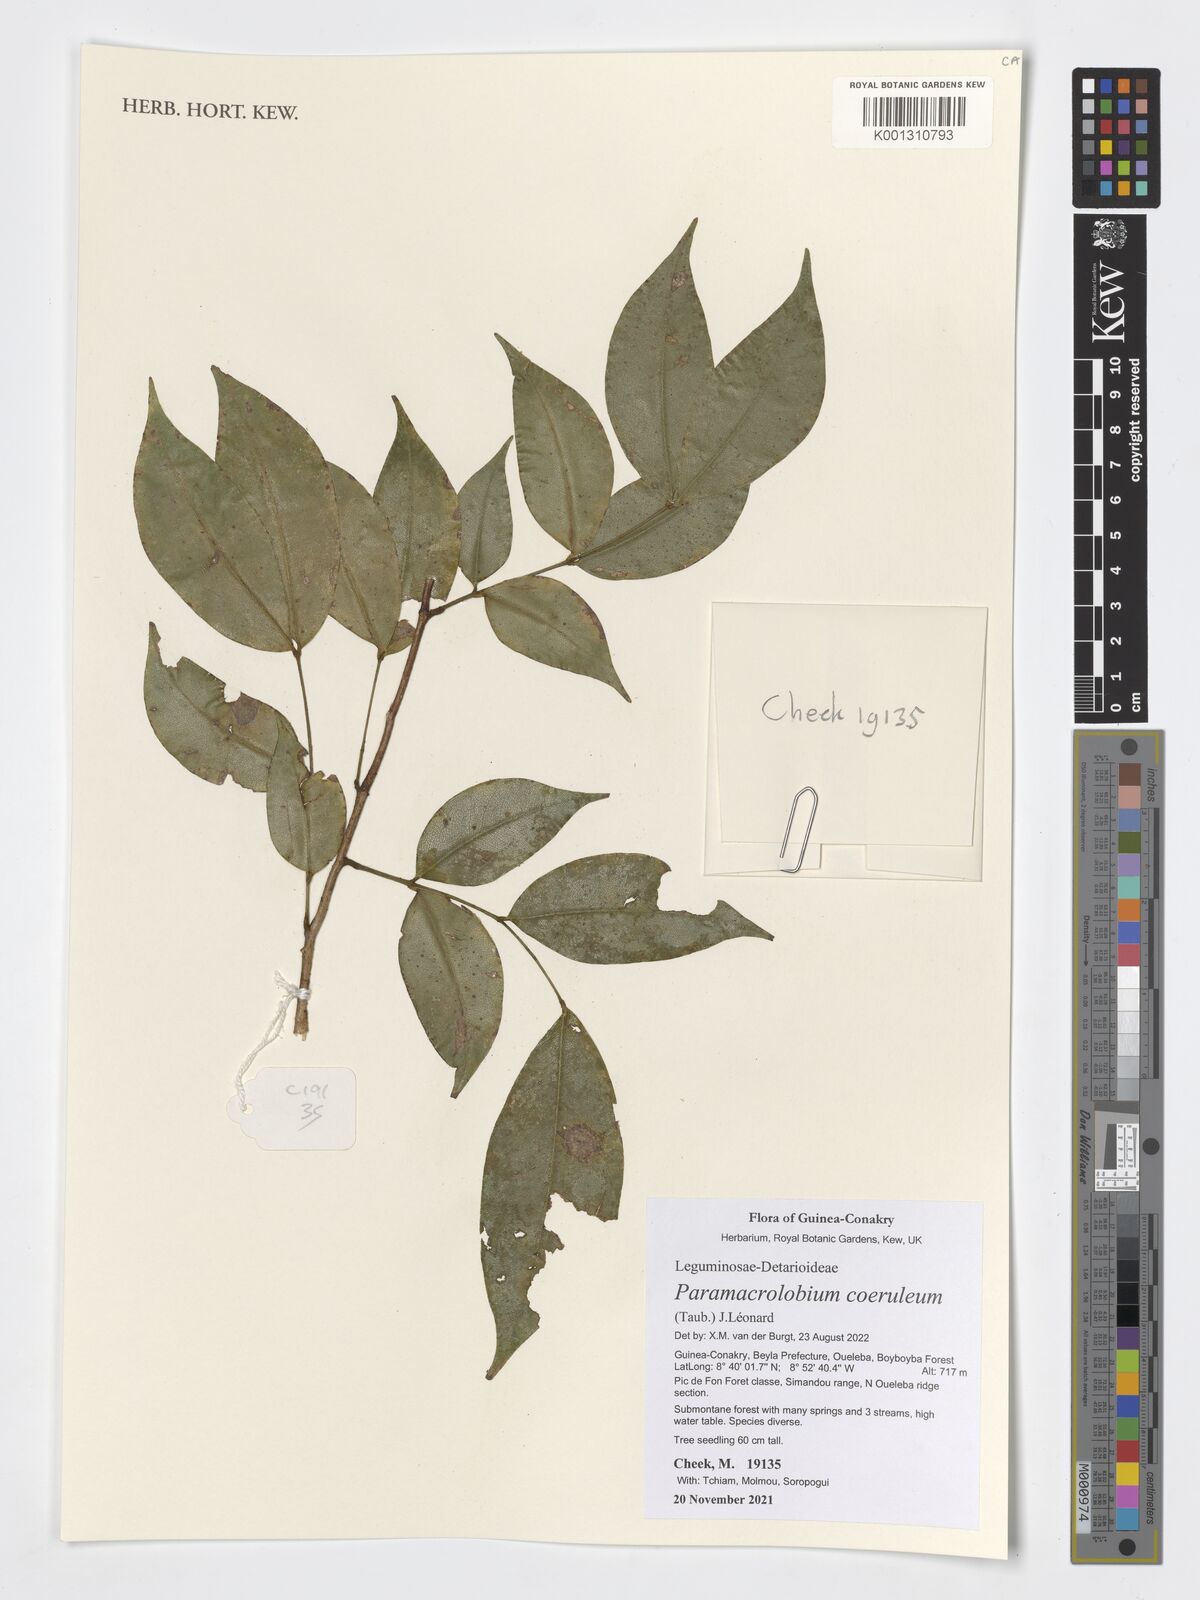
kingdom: Plantae
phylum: Tracheophyta
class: Magnoliopsida
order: Fabales
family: Fabaceae
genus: Paramacrolobium
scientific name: Paramacrolobium coeruleum
